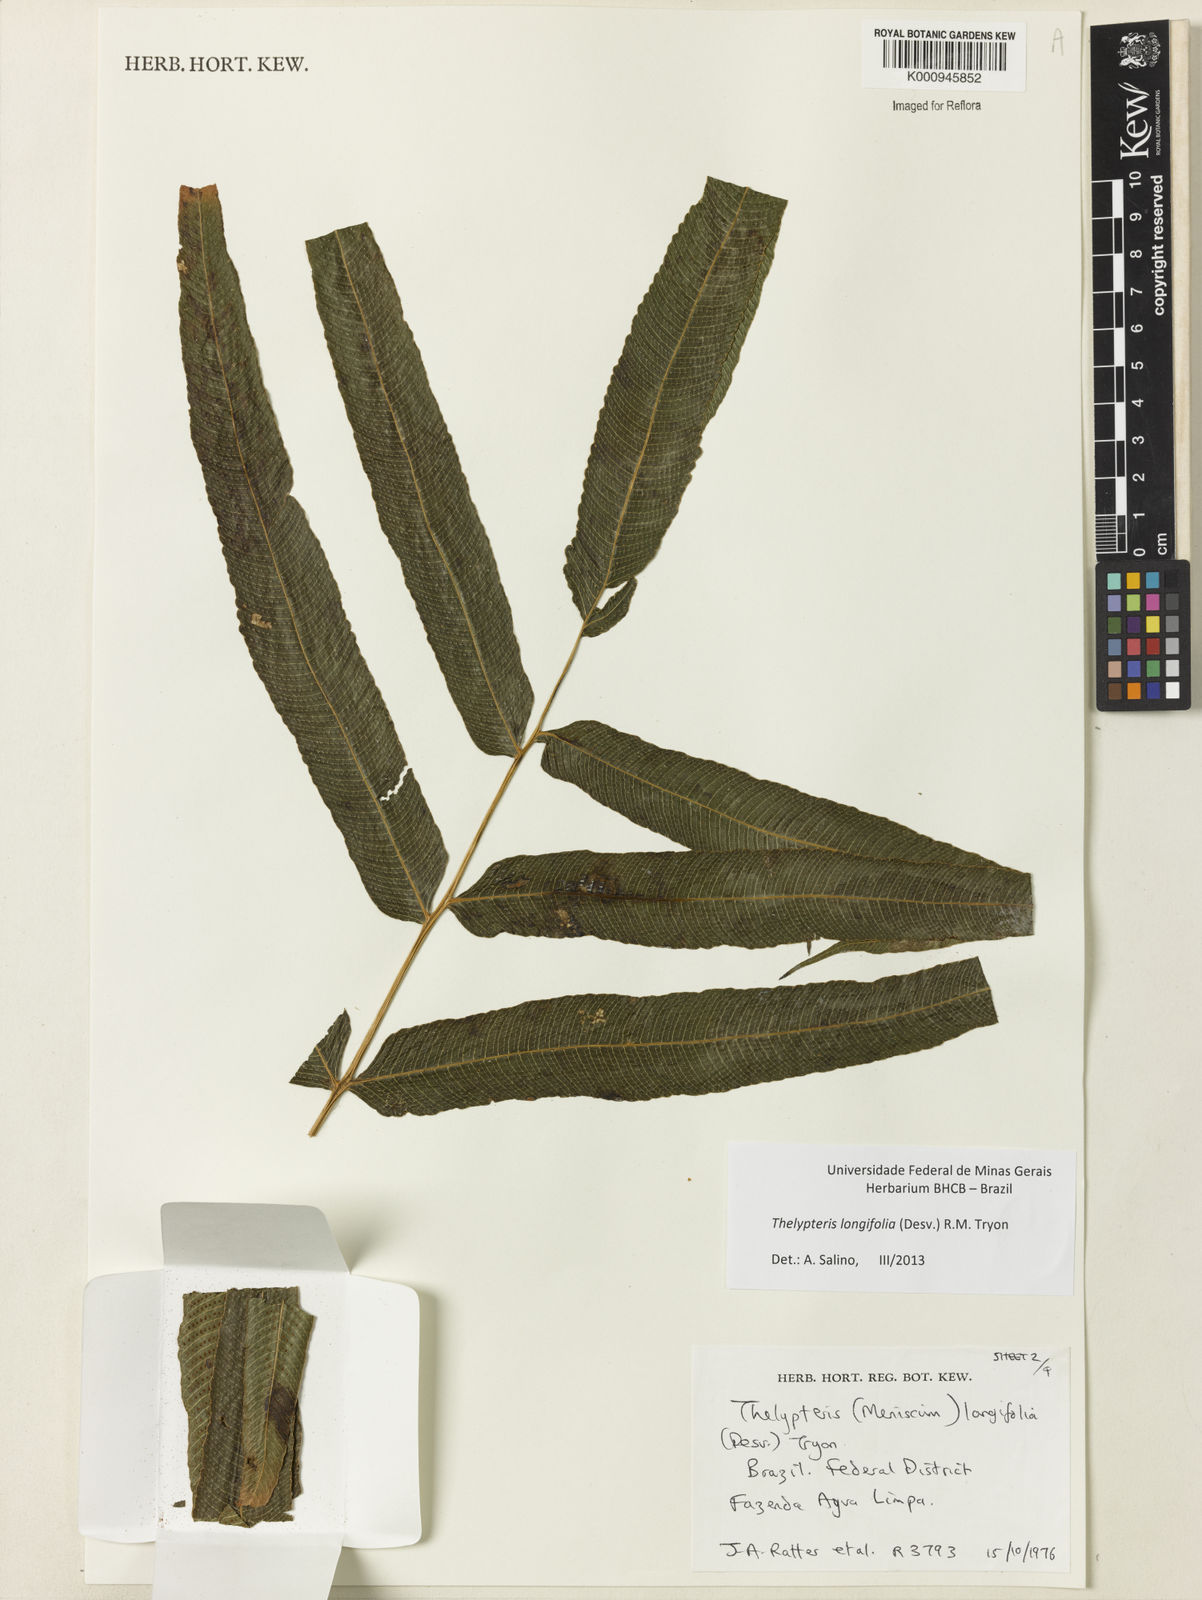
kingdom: Plantae
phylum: Tracheophyta
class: Polypodiopsida
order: Polypodiales
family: Thelypteridaceae
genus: Meniscium
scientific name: Meniscium longifolium
